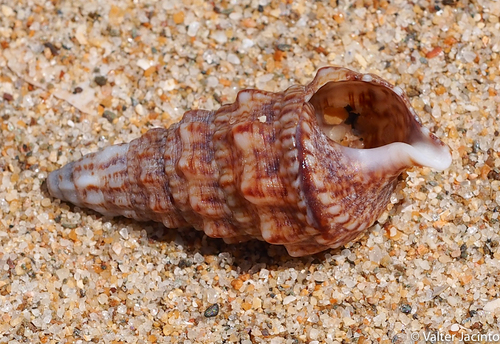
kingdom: Animalia
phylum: Mollusca
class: Gastropoda
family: Cerithiidae
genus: Cerithium
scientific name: Cerithium vulgatum
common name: European cerith
